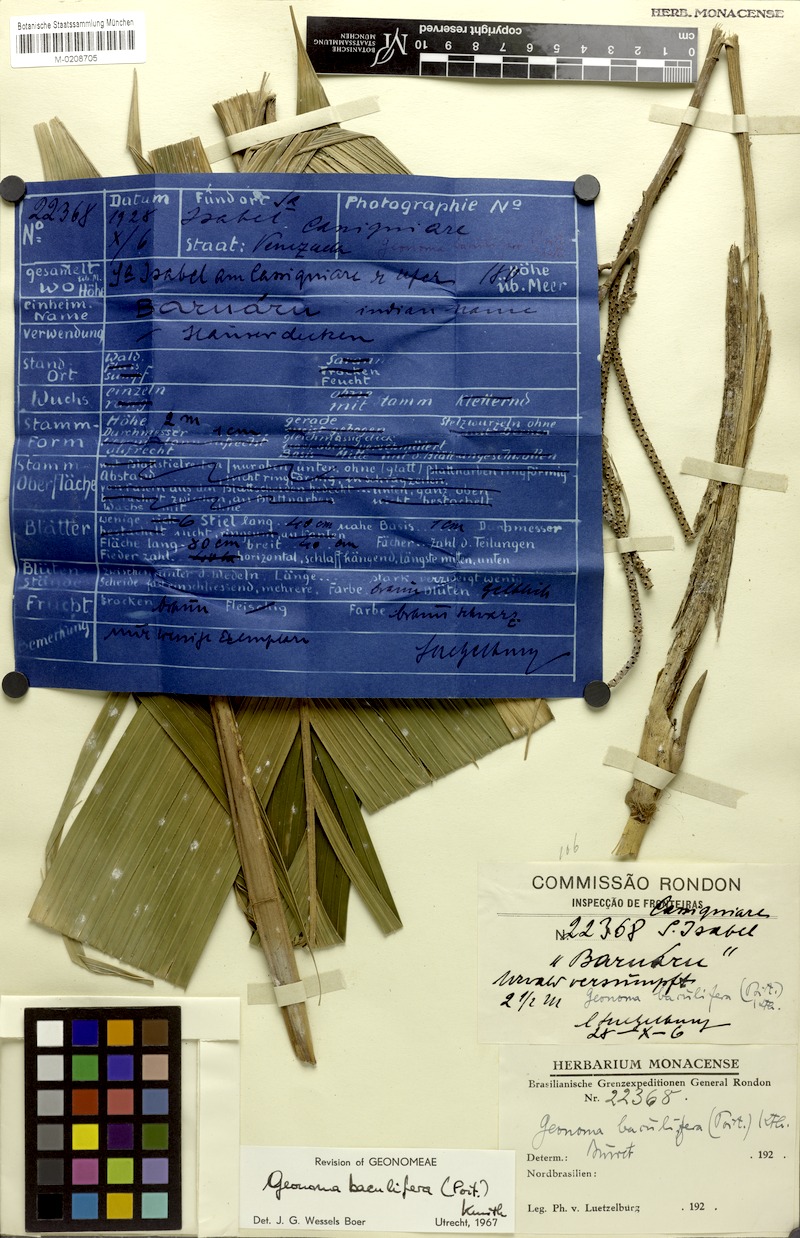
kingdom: Plantae
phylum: Tracheophyta
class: Liliopsida
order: Arecales
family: Arecaceae
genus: Geonoma
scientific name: Geonoma baculifera
